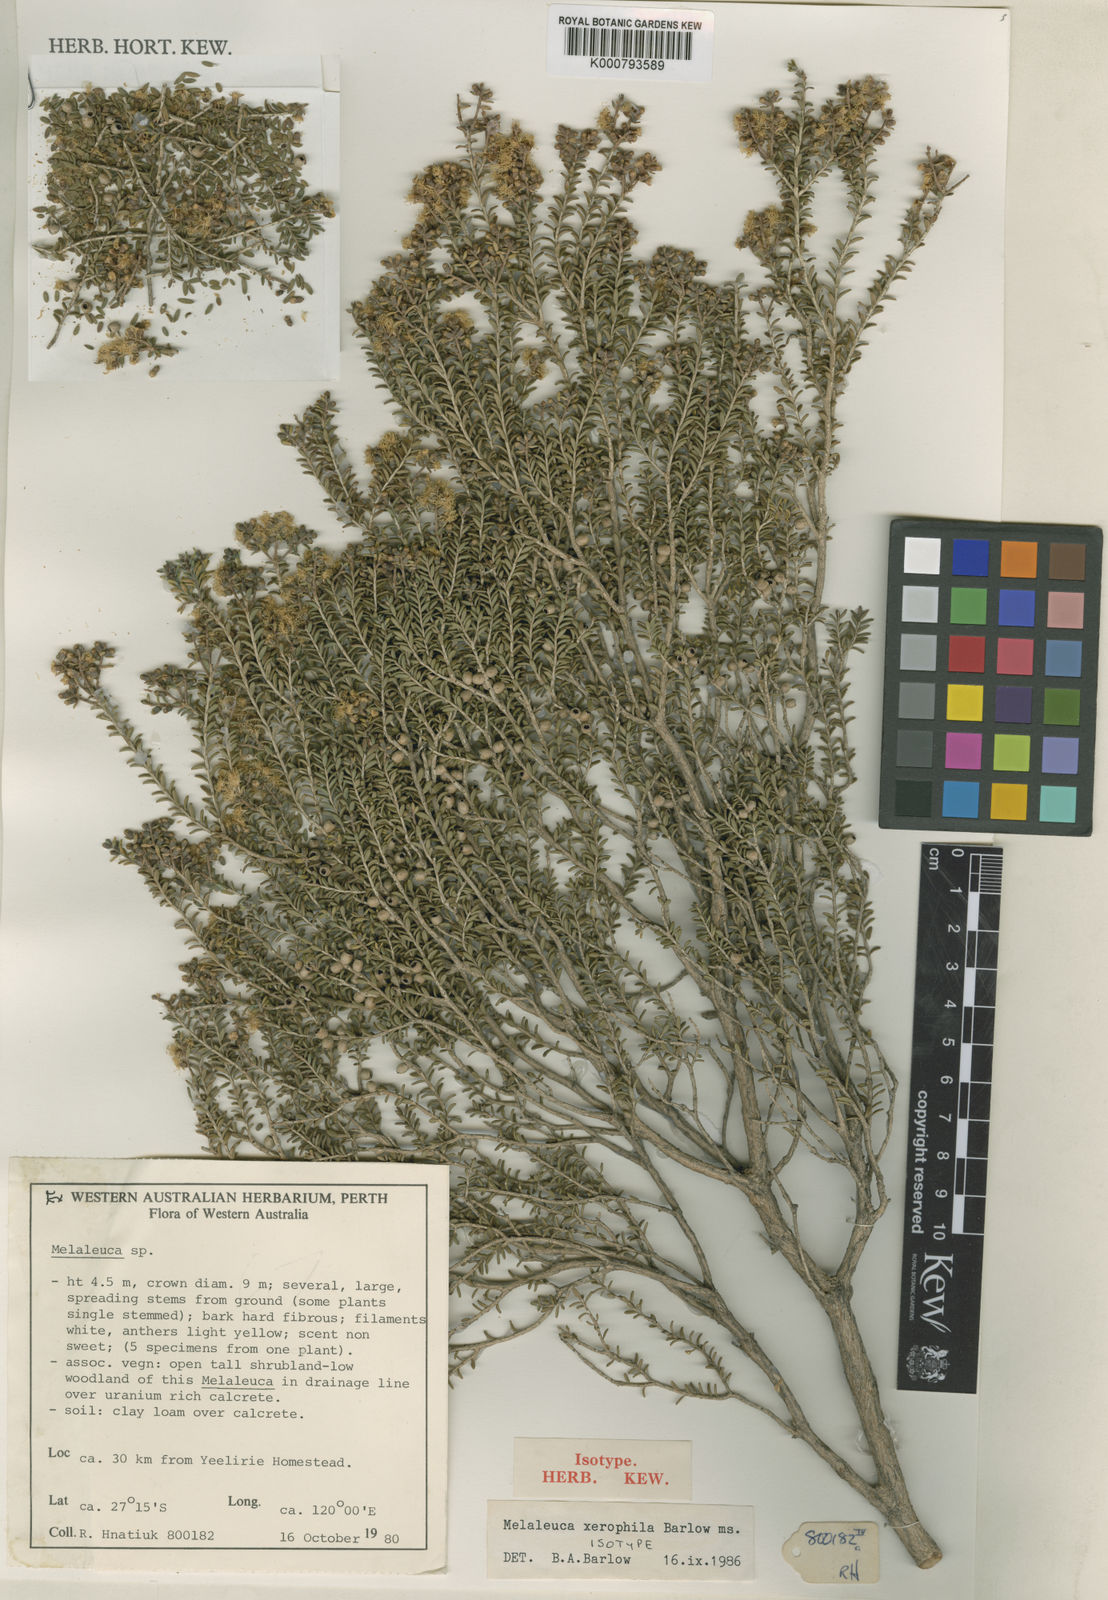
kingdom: Plantae
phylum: Tracheophyta
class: Magnoliopsida
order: Myrtales
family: Myrtaceae
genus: Melaleuca
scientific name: Melaleuca xerophila
